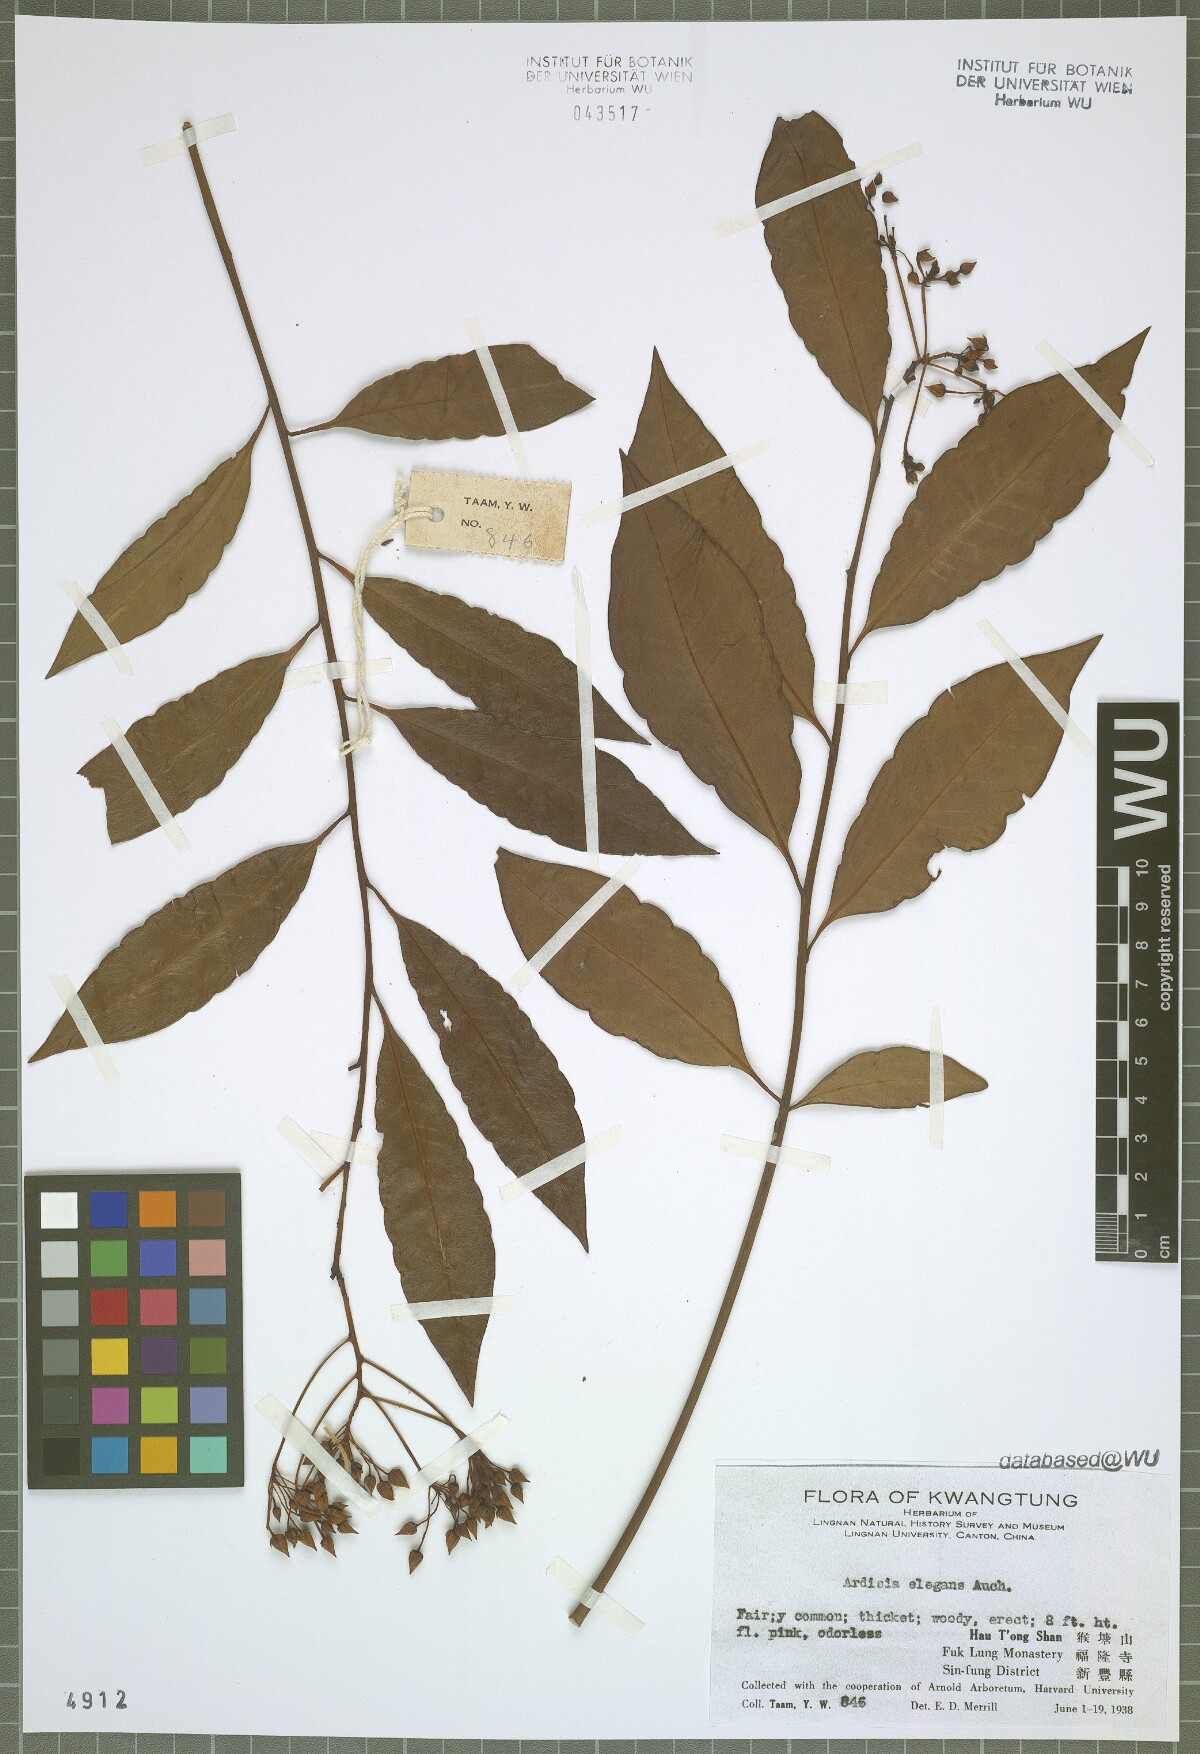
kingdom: Plantae
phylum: Tracheophyta
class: Magnoliopsida
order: Ericales
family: Primulaceae
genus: Ardisia
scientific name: Ardisia crenata
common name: Hen's eyes
